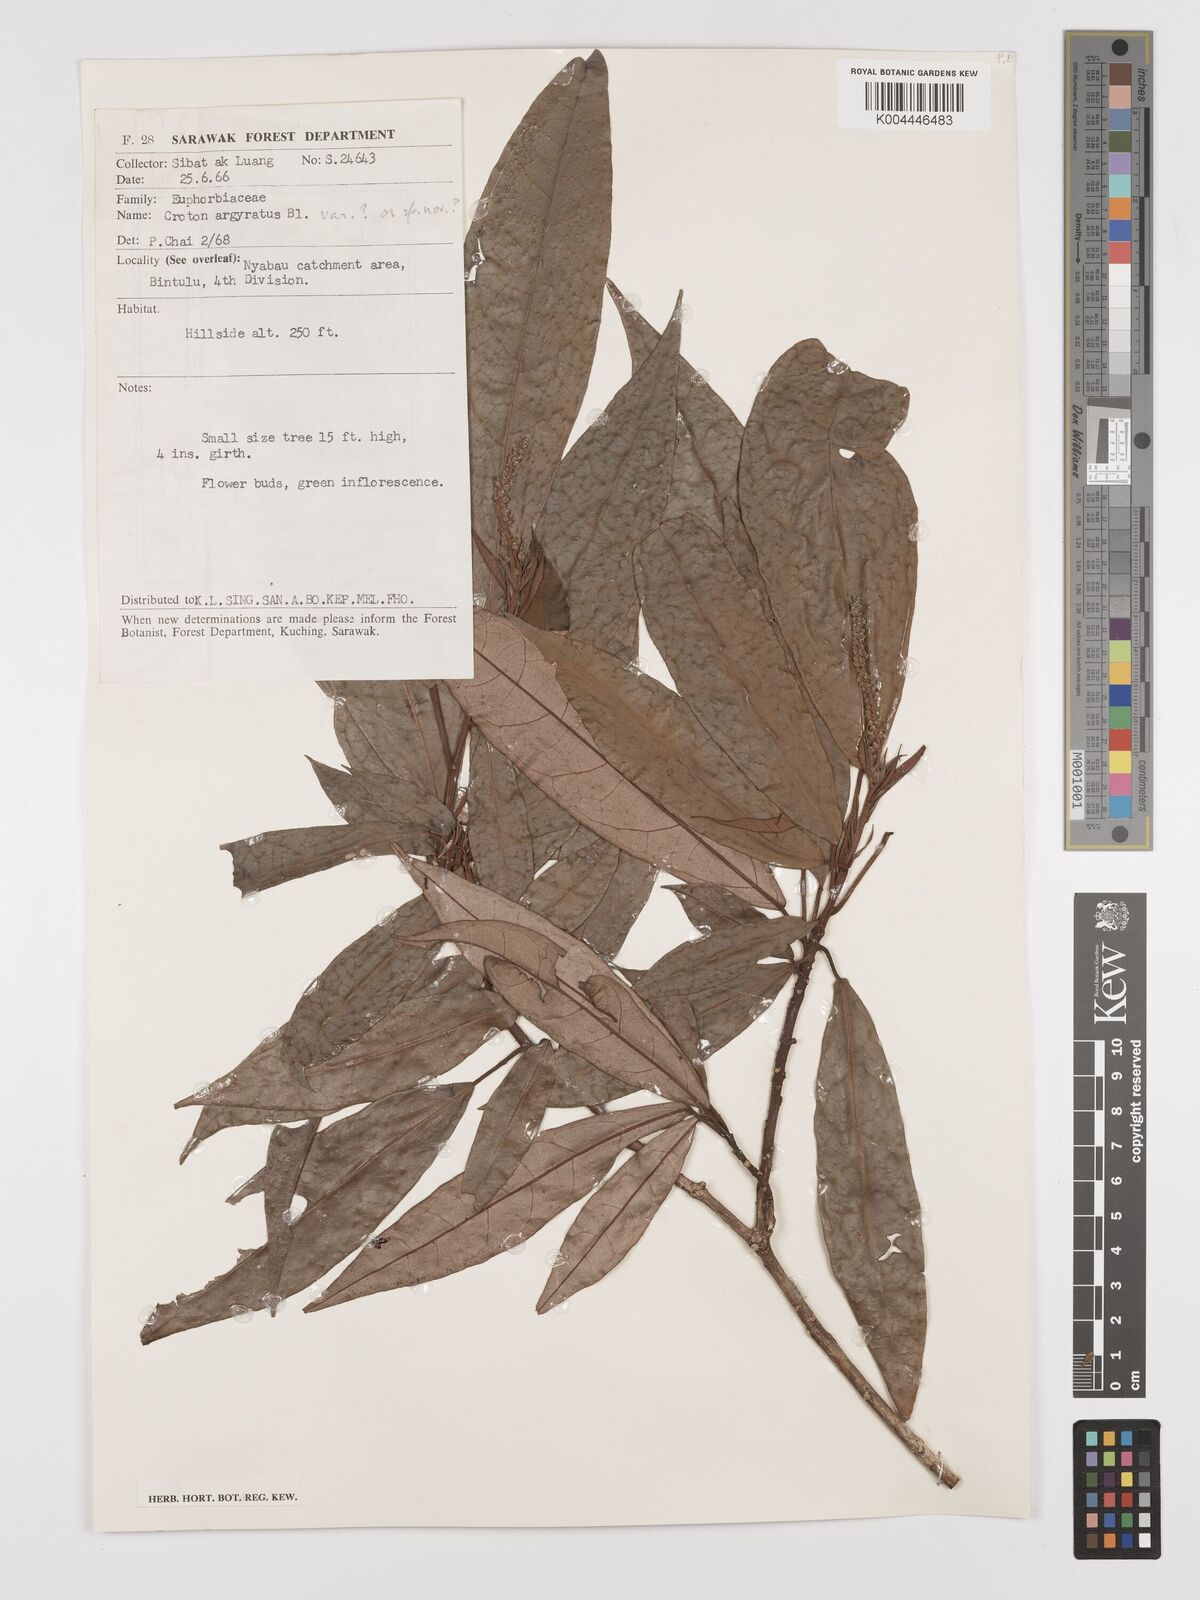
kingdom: Plantae
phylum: Tracheophyta
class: Magnoliopsida
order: Malpighiales
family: Euphorbiaceae
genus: Croton
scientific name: Croton argyratus
